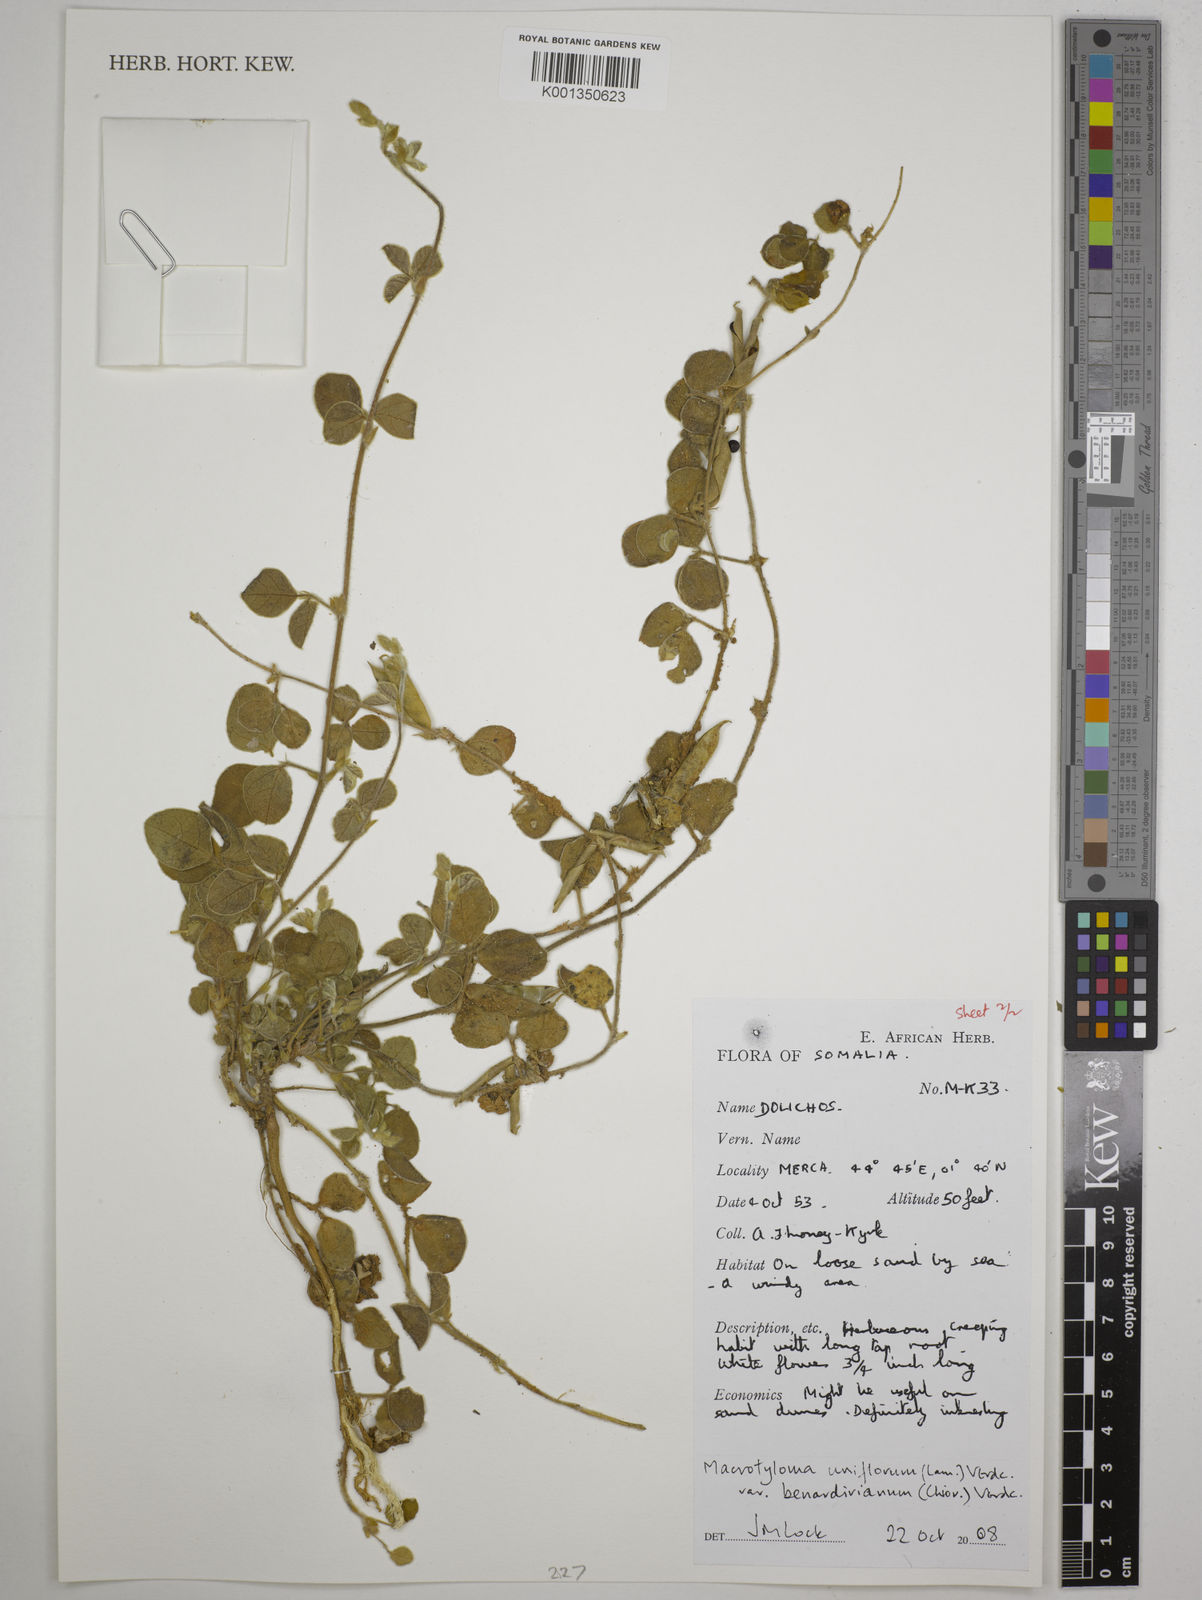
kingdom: Plantae
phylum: Tracheophyta
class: Magnoliopsida
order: Fabales
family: Fabaceae
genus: Dolichos
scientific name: Dolichos
